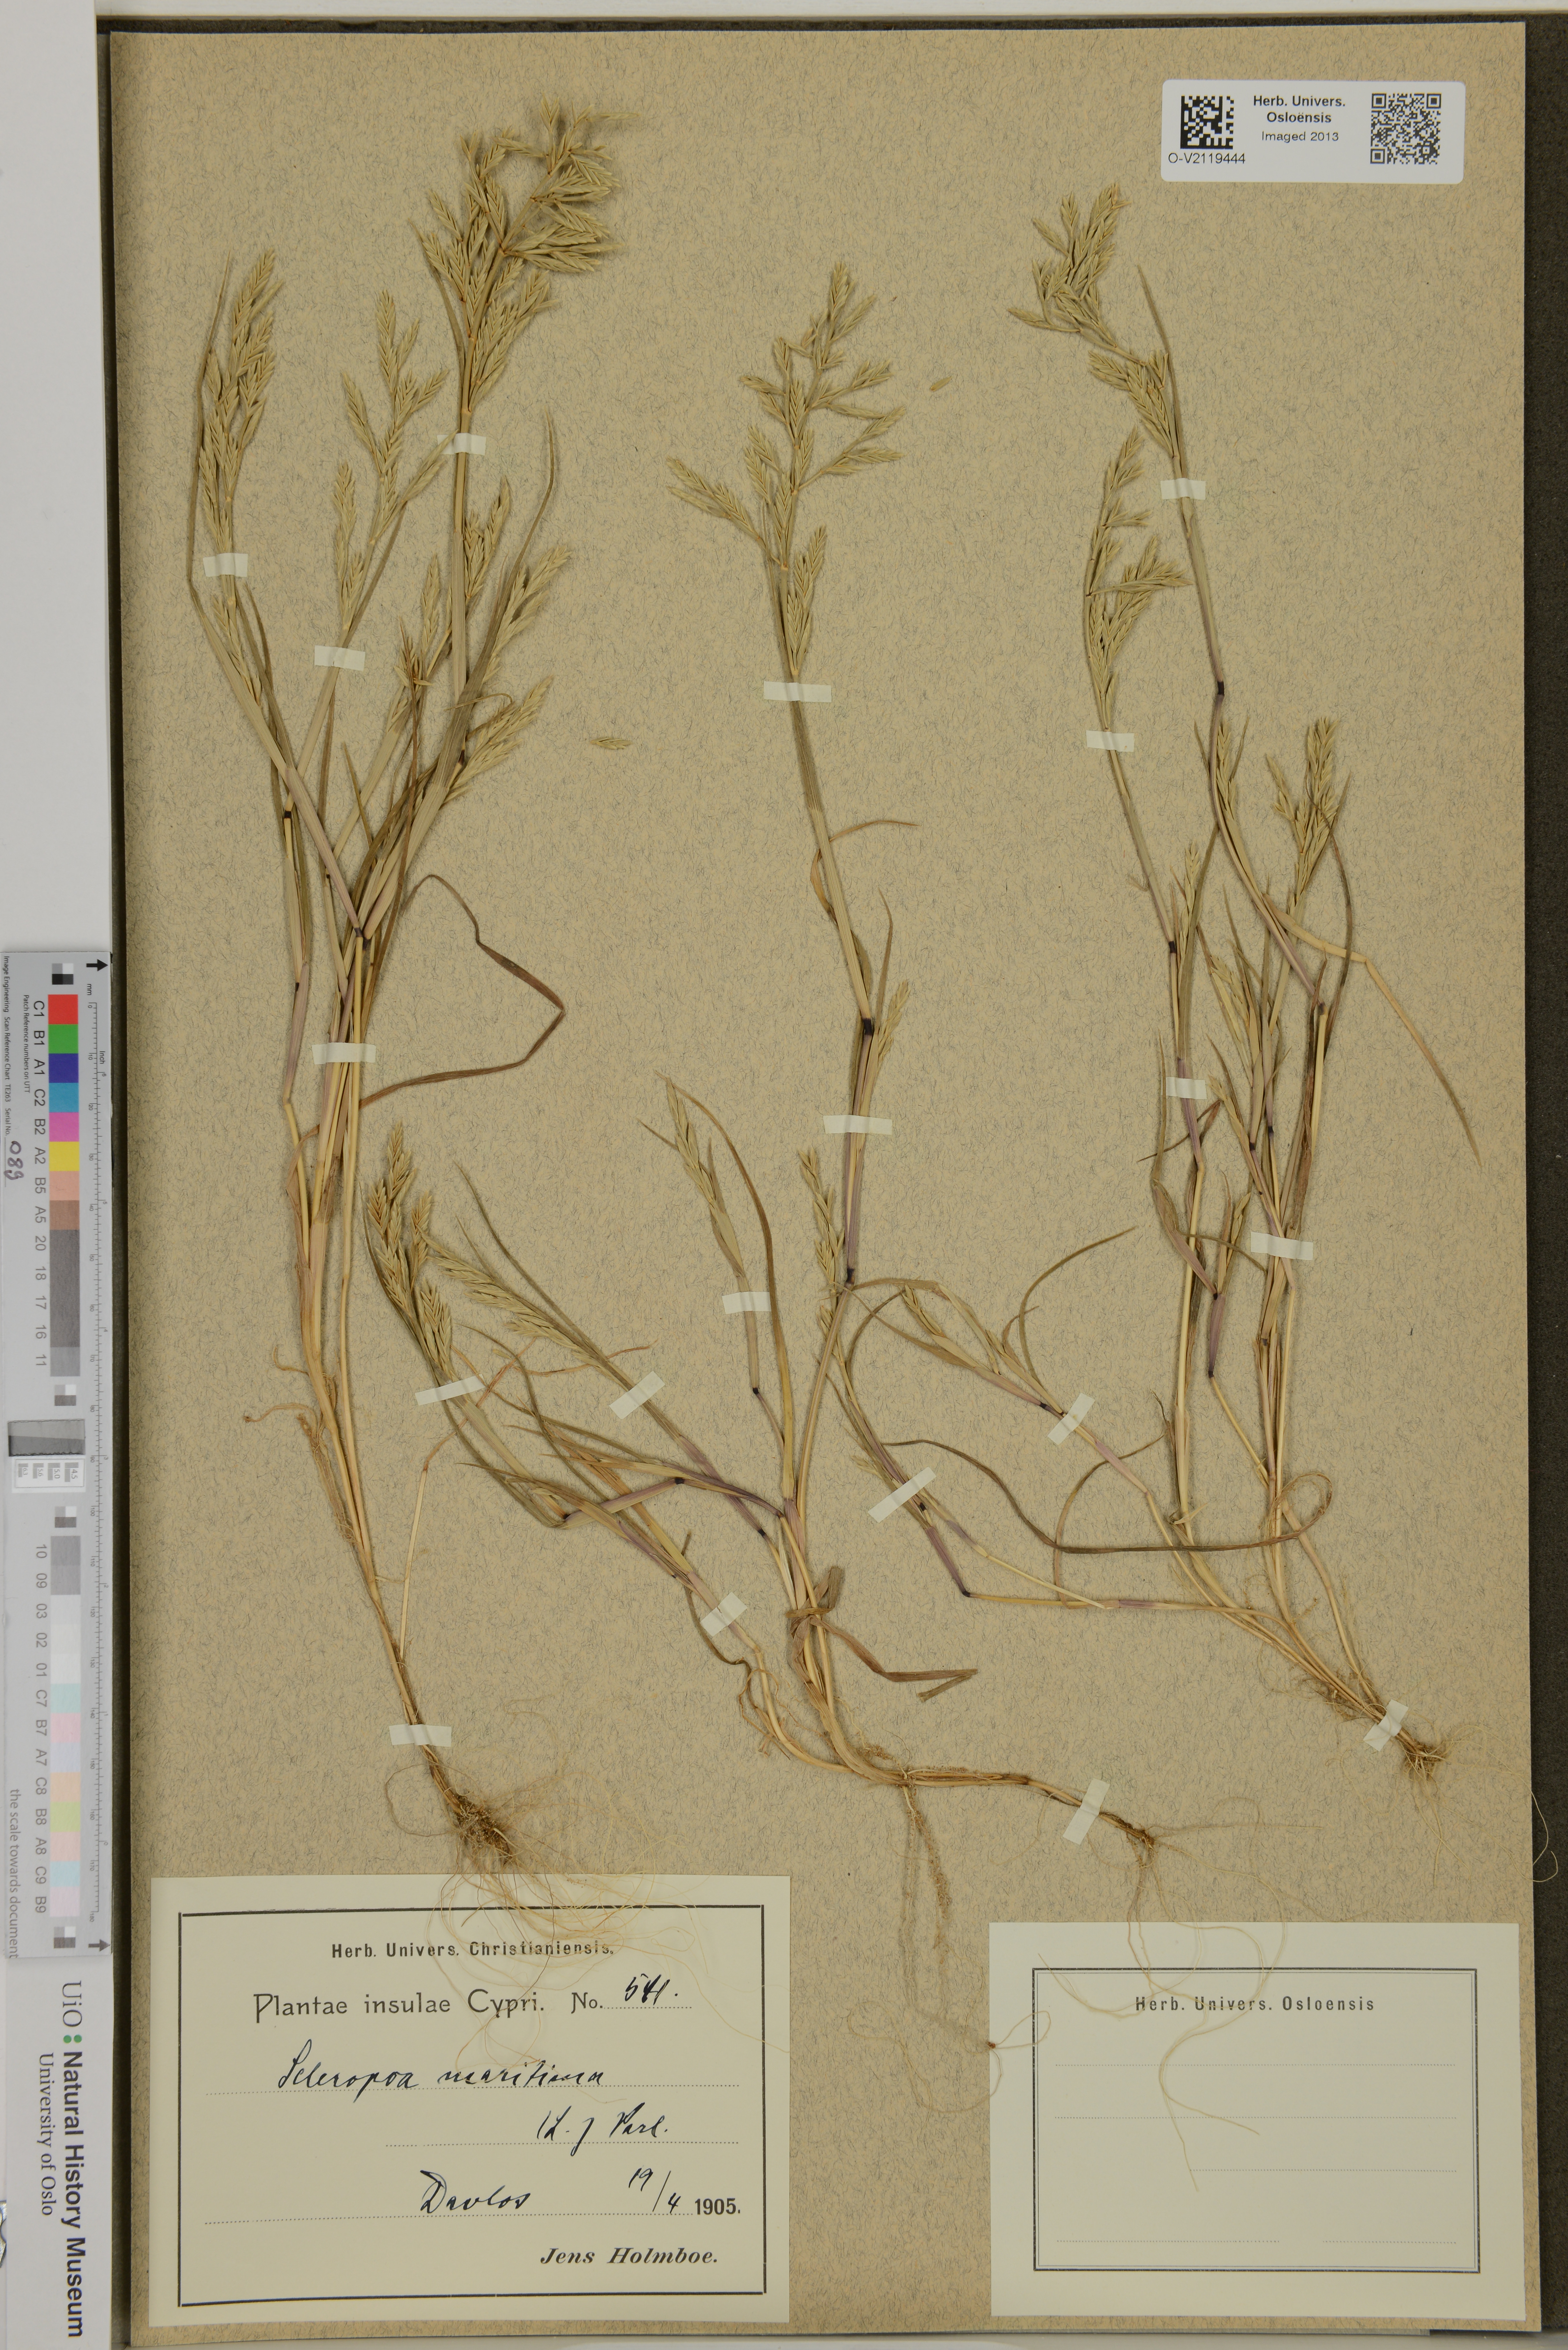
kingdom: Plantae
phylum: Tracheophyta
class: Liliopsida
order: Poales
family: Poaceae
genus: Cutandia
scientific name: Cutandia maritima
